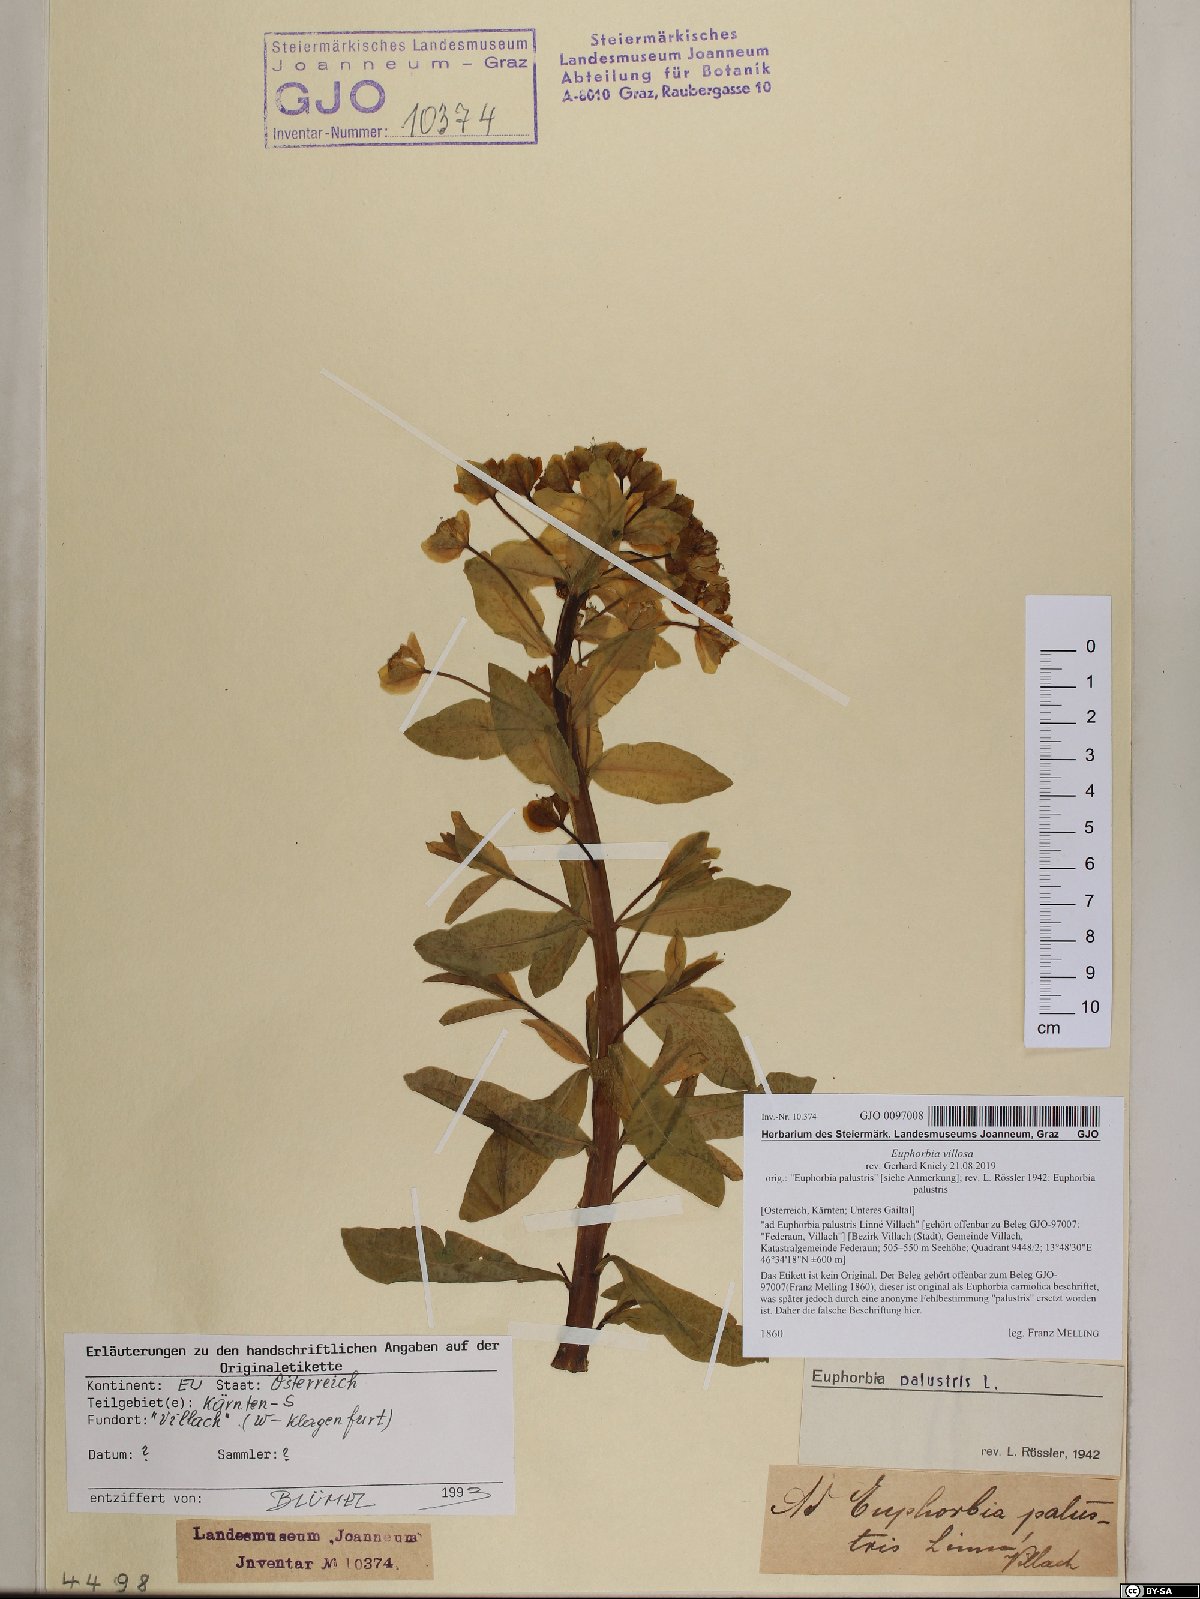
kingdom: Plantae
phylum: Tracheophyta
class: Magnoliopsida
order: Malpighiales
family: Euphorbiaceae
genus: Euphorbia
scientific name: Euphorbia illirica
